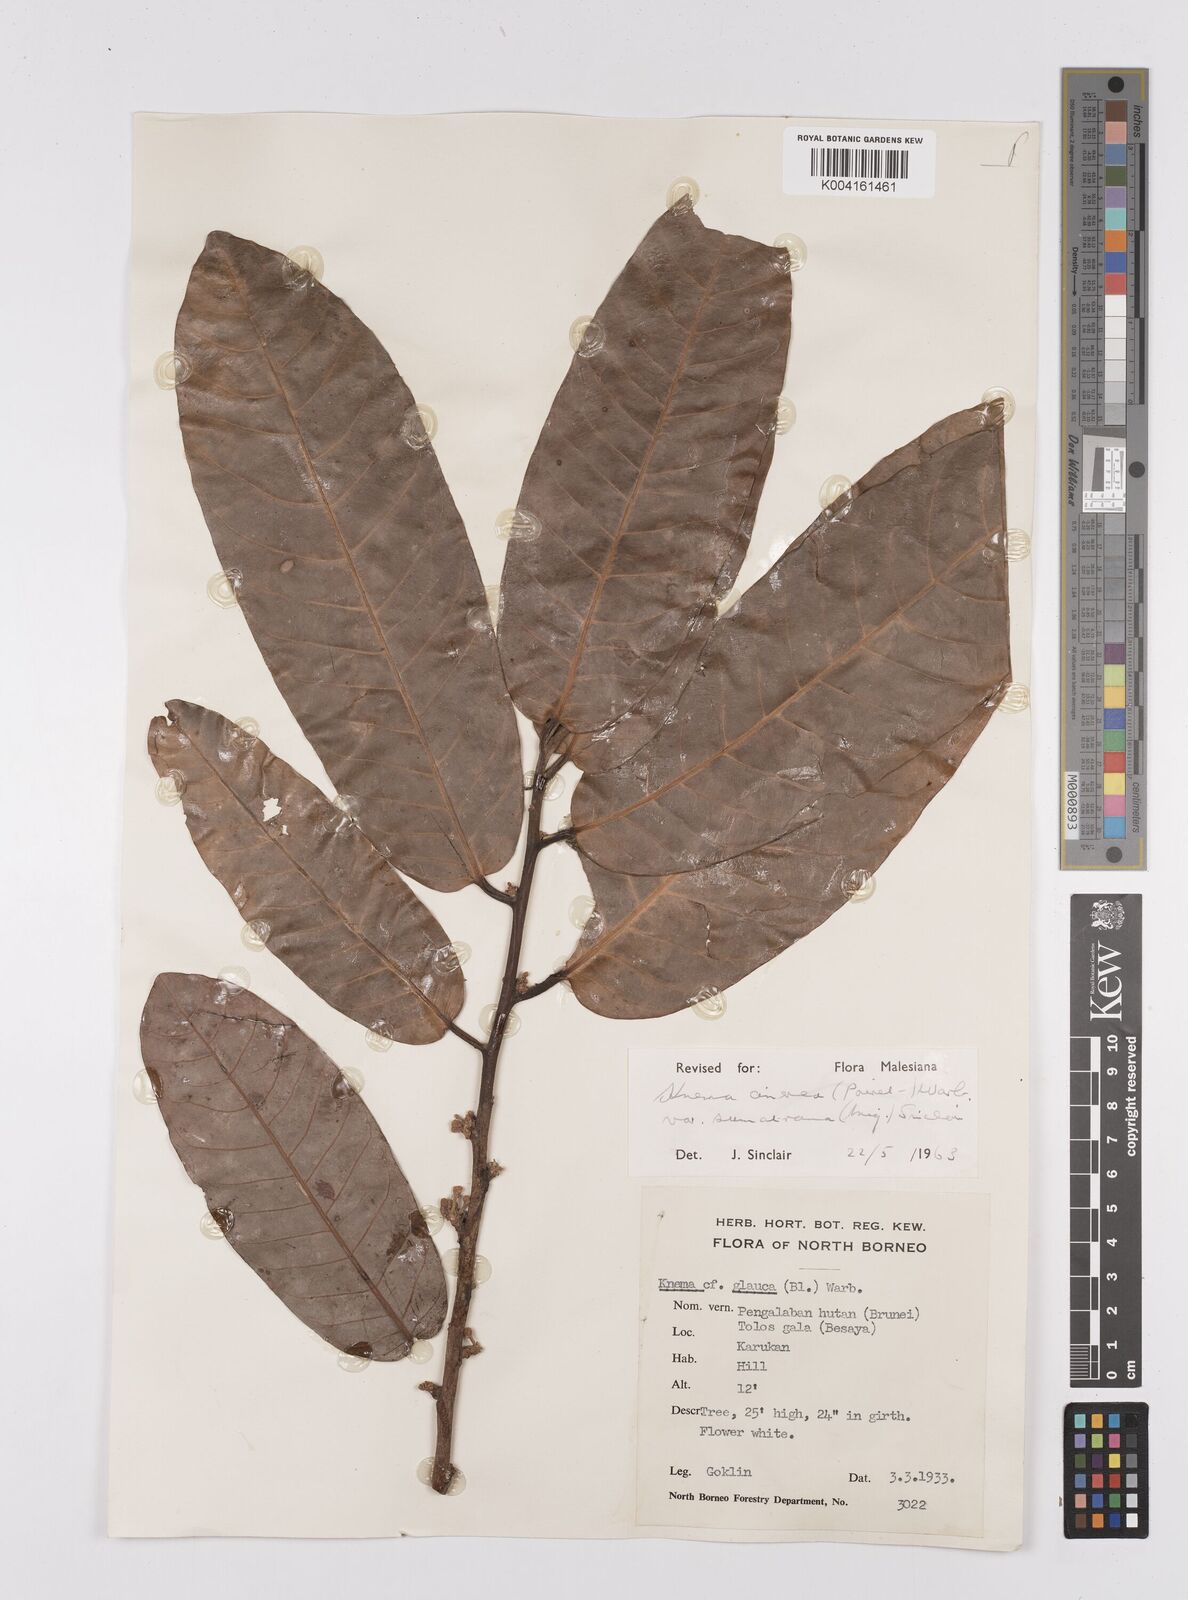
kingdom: Plantae
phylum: Tracheophyta
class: Magnoliopsida
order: Magnoliales
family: Myristicaceae
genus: Knema
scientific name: Knema
